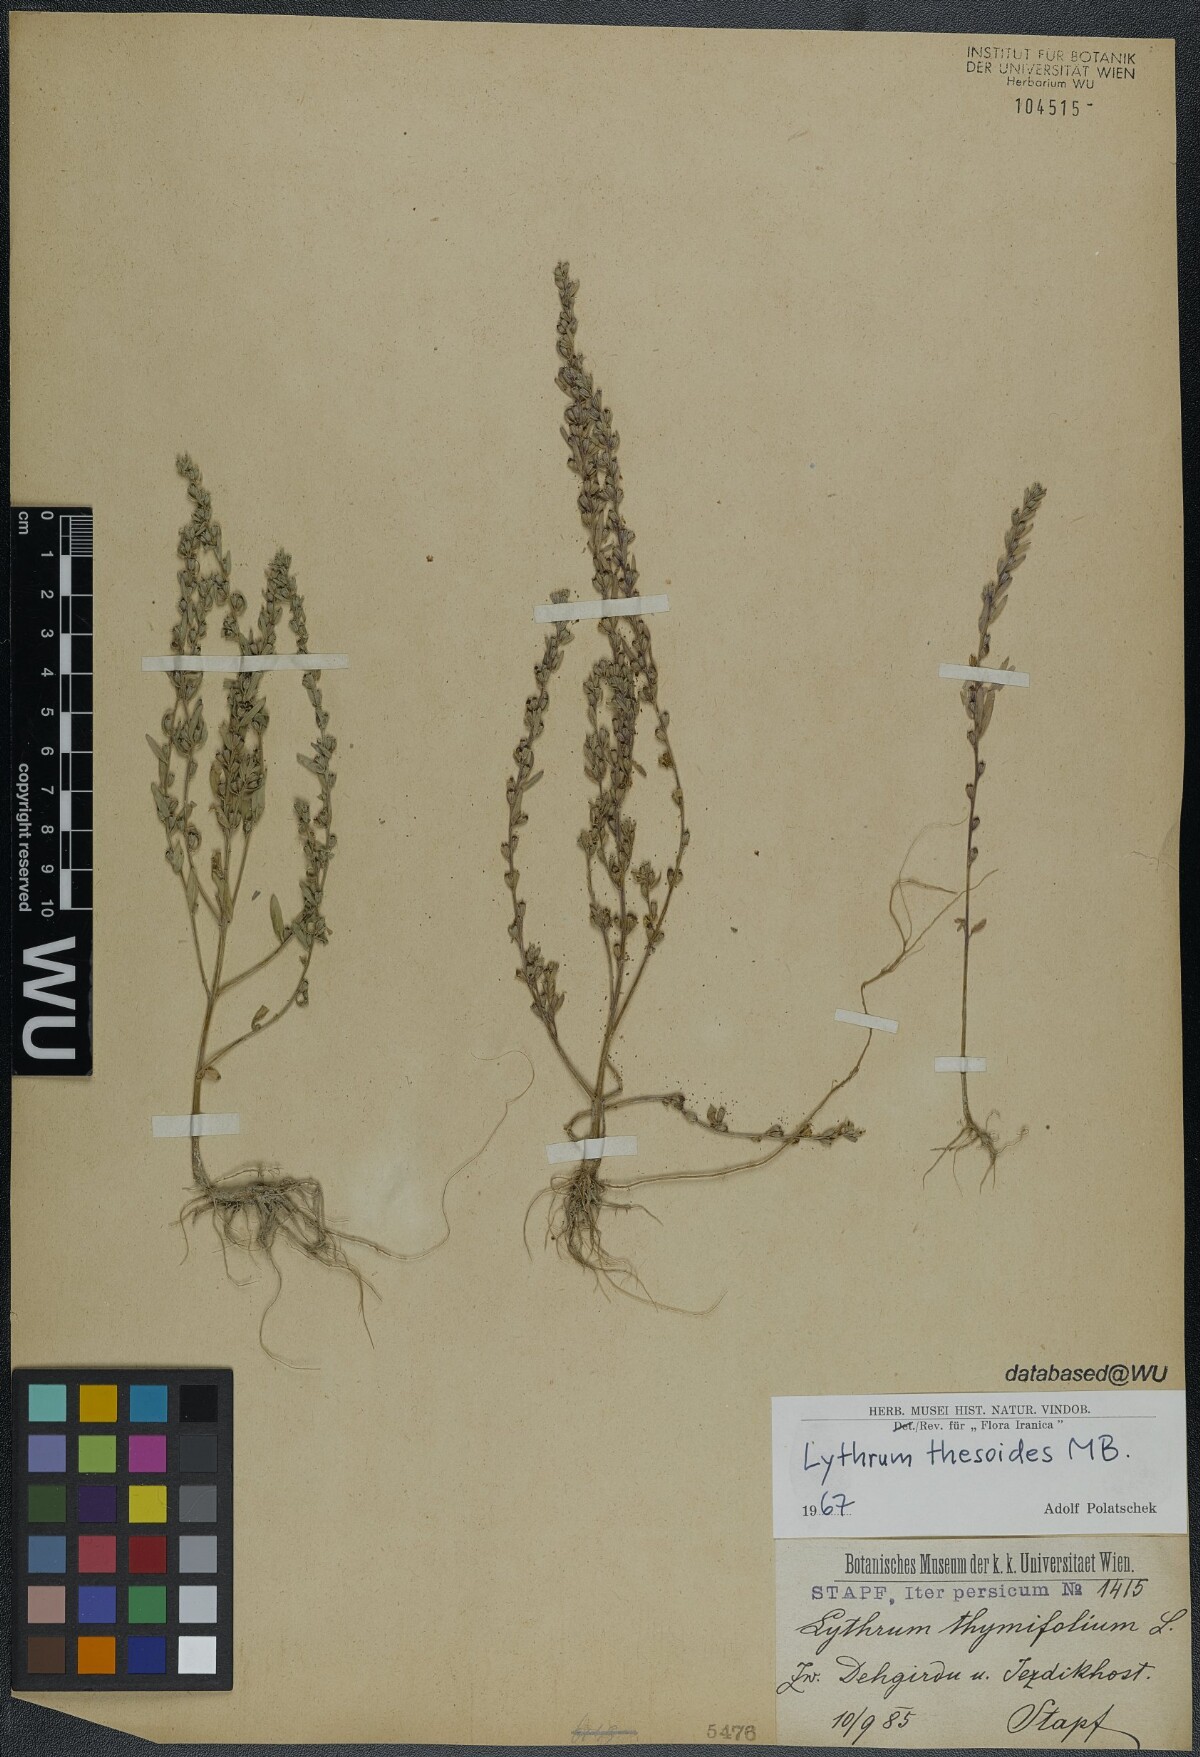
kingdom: Plantae
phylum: Tracheophyta
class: Magnoliopsida
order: Myrtales
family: Lythraceae
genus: Lythrum
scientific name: Lythrum thesioides
